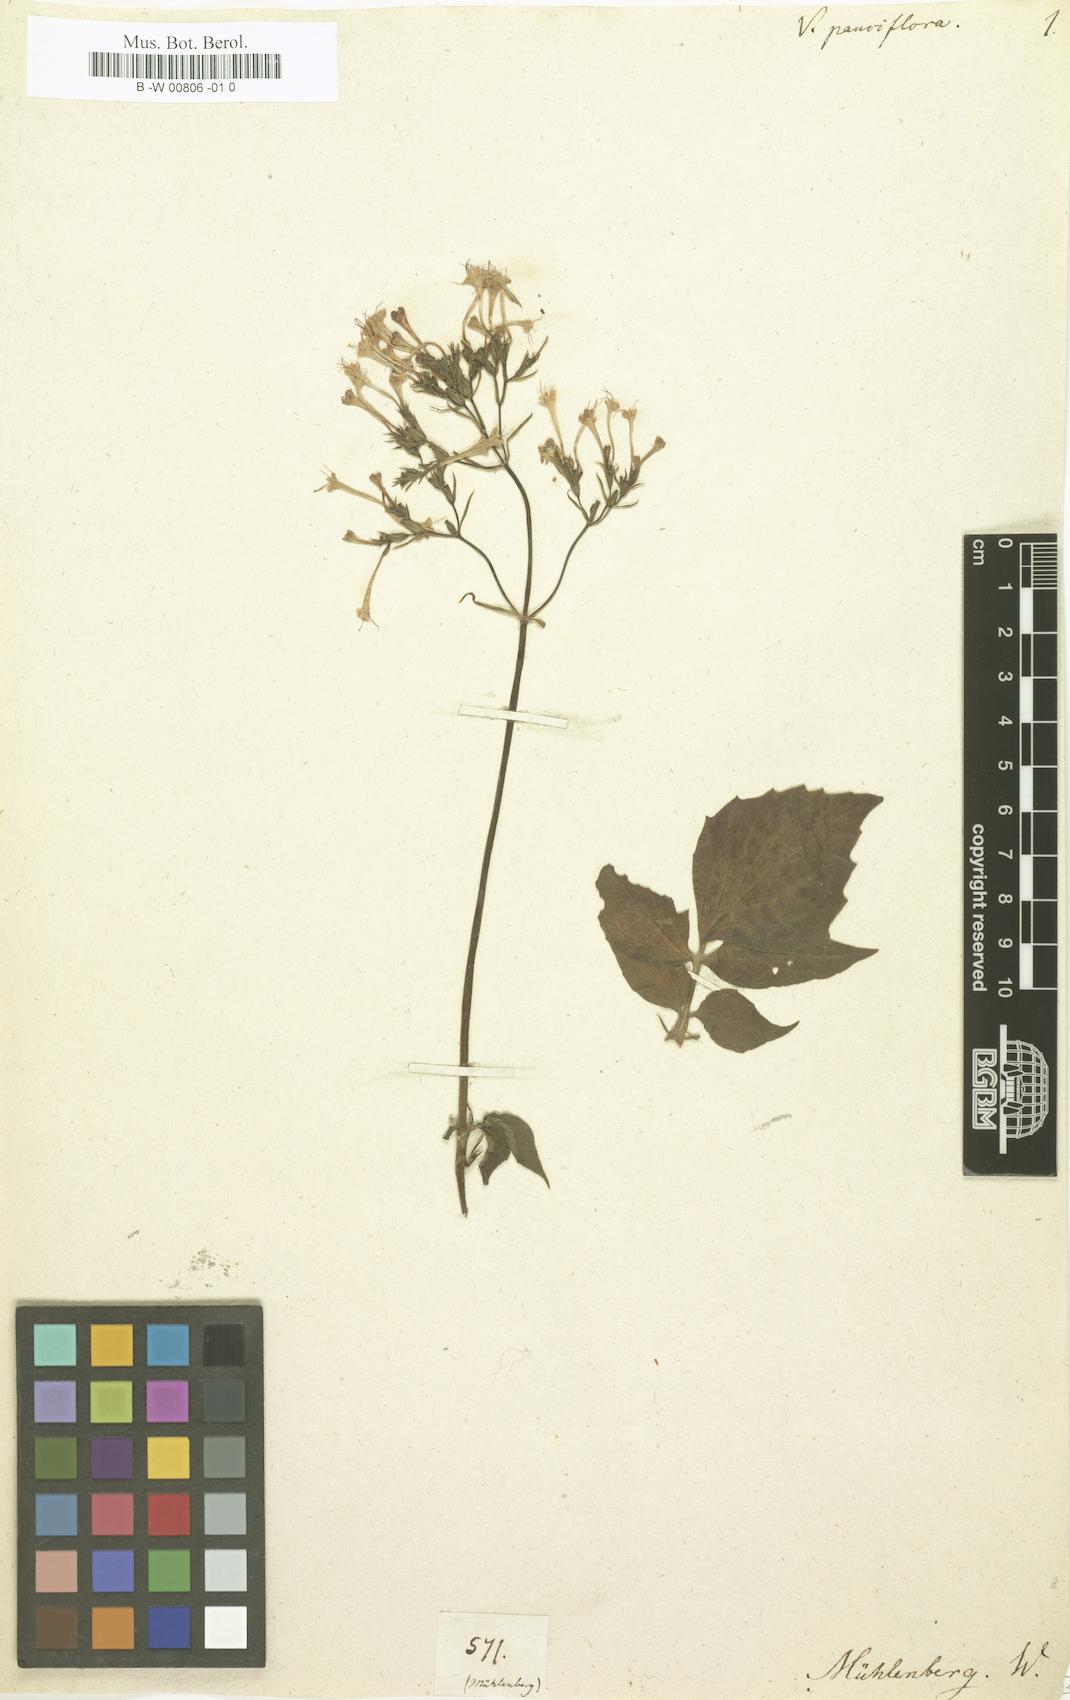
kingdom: Plantae
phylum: Tracheophyta
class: Magnoliopsida
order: Dipsacales
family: Caprifoliaceae
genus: Valeriana
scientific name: Valeriana pauciflora
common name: Long-tube valeriana
